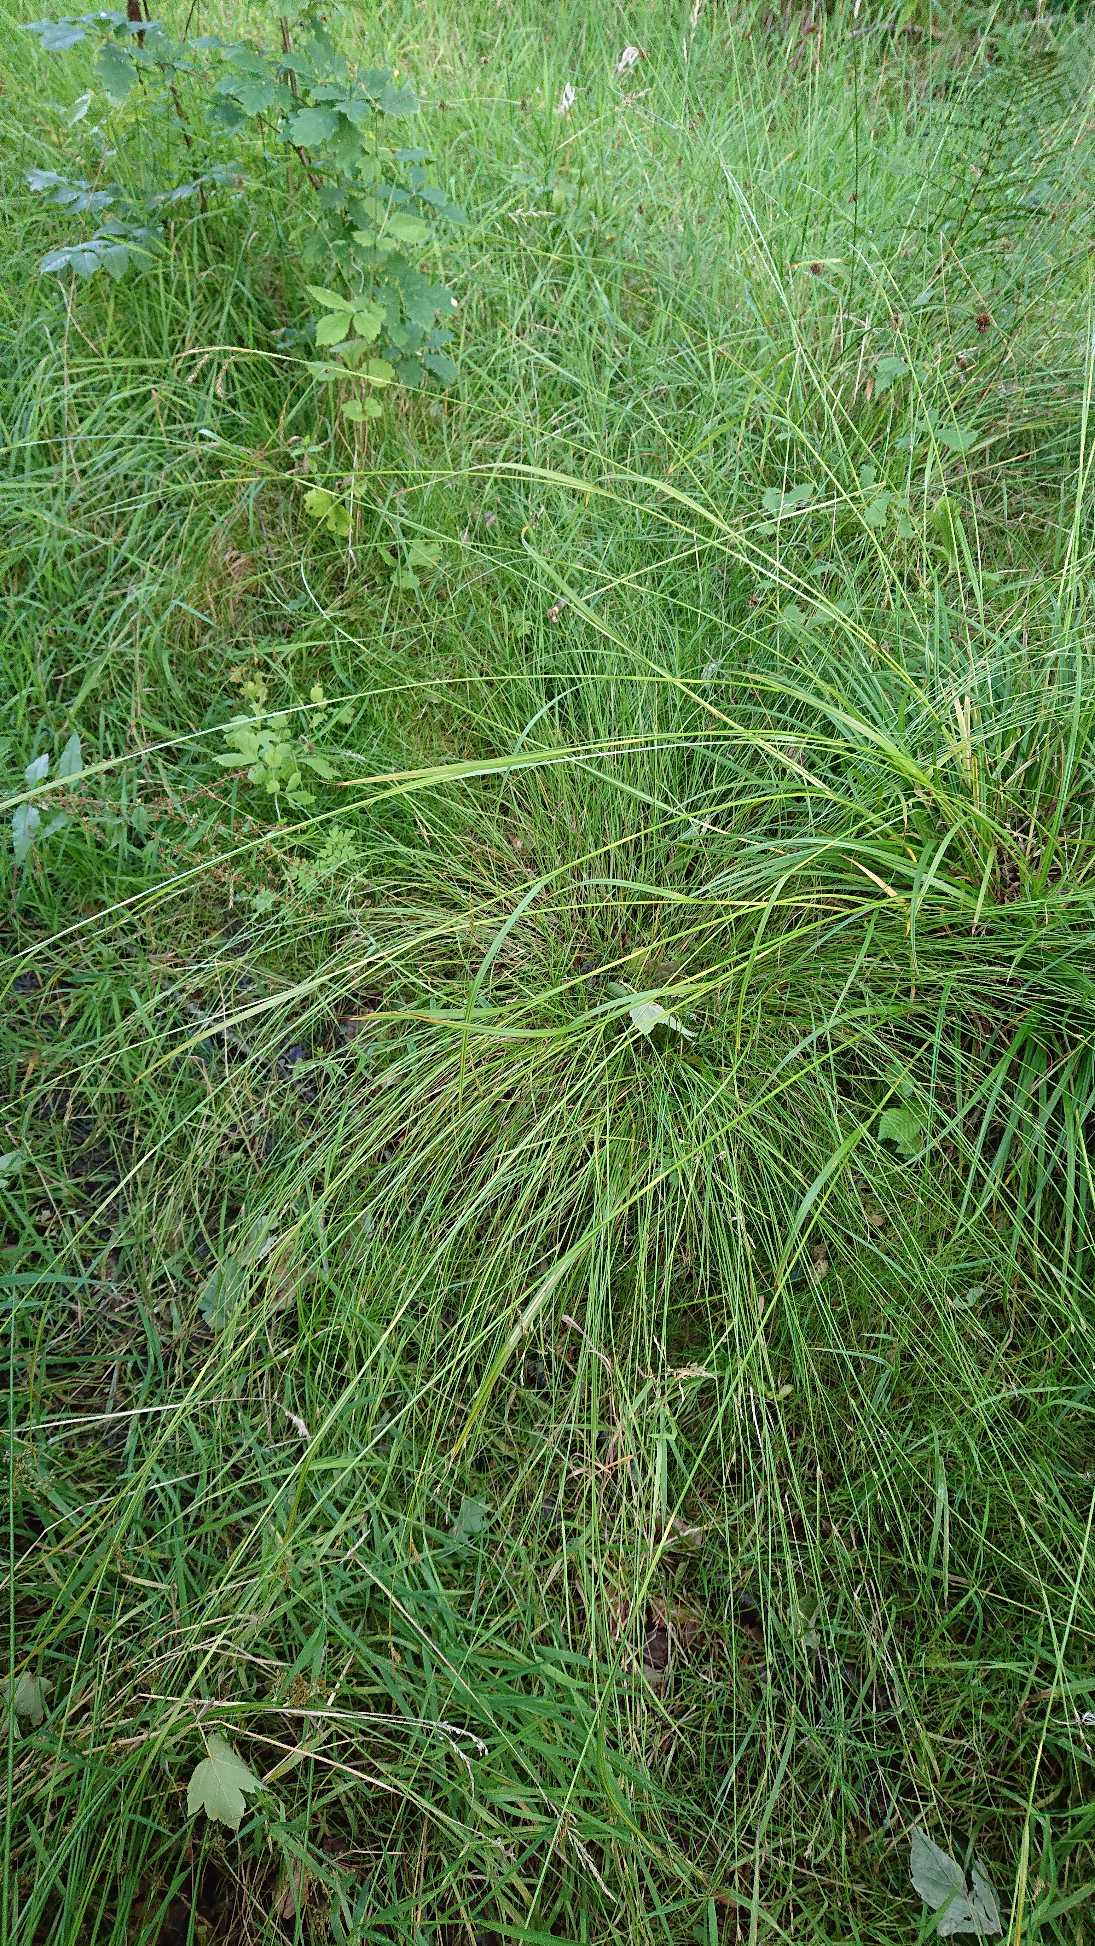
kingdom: Plantae
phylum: Tracheophyta
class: Liliopsida
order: Poales
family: Cyperaceae
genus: Carex
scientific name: Carex sylvatica
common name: Skov-star
